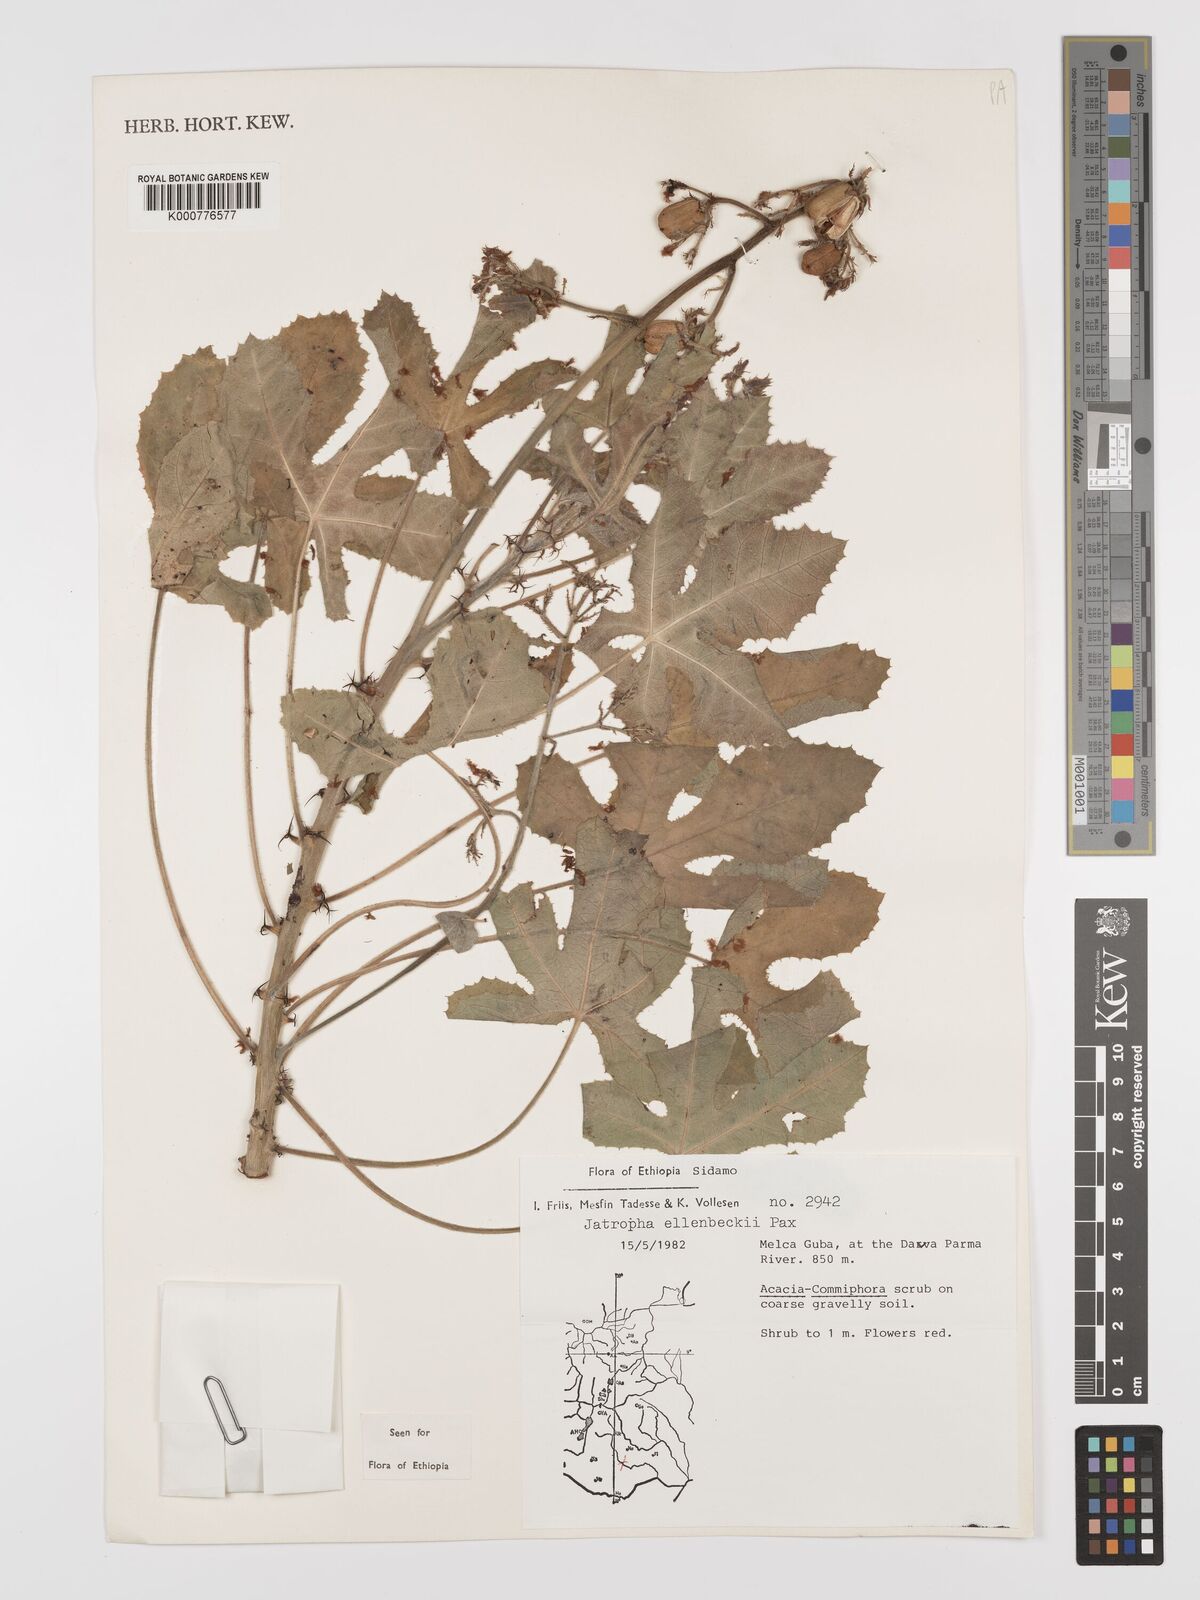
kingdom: Plantae
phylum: Tracheophyta
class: Magnoliopsida
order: Malpighiales
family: Euphorbiaceae
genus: Jatropha
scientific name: Jatropha ellenbeckii
